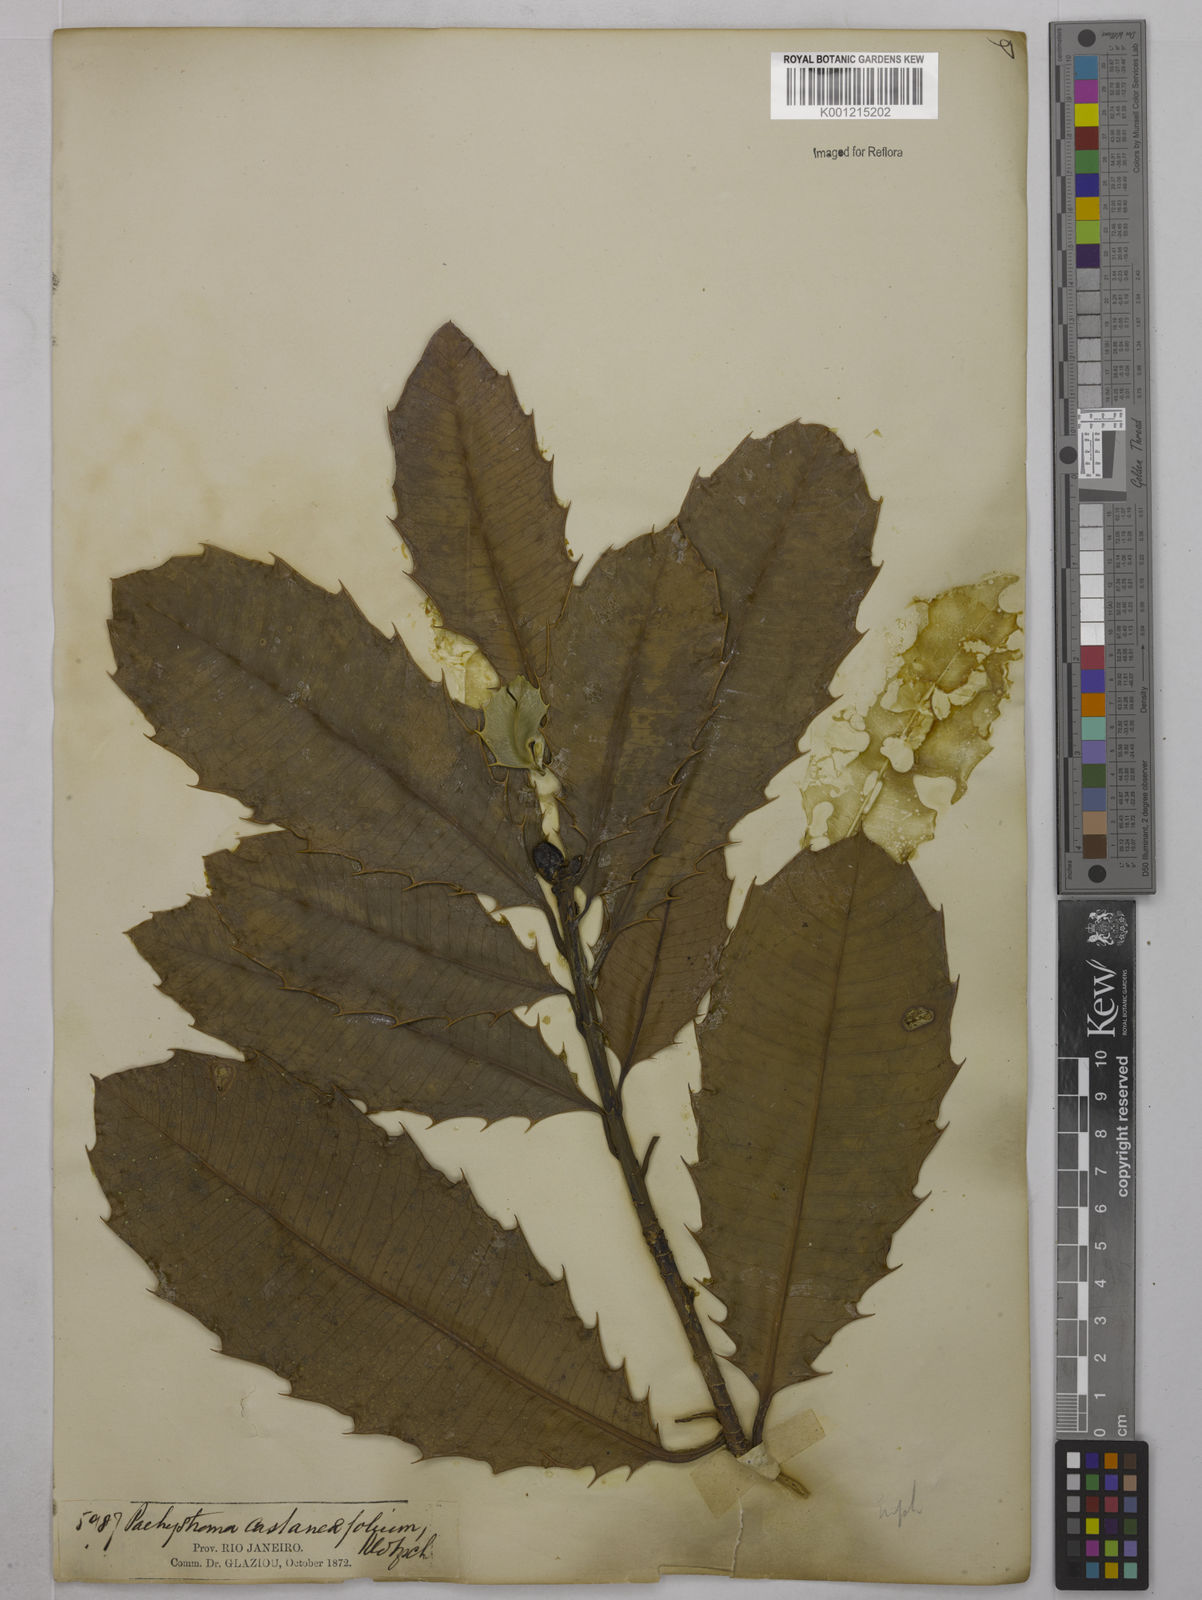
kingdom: Plantae
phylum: Tracheophyta
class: Magnoliopsida
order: Malpighiales
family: Euphorbiaceae
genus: Pachystroma
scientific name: Pachystroma longifolium
